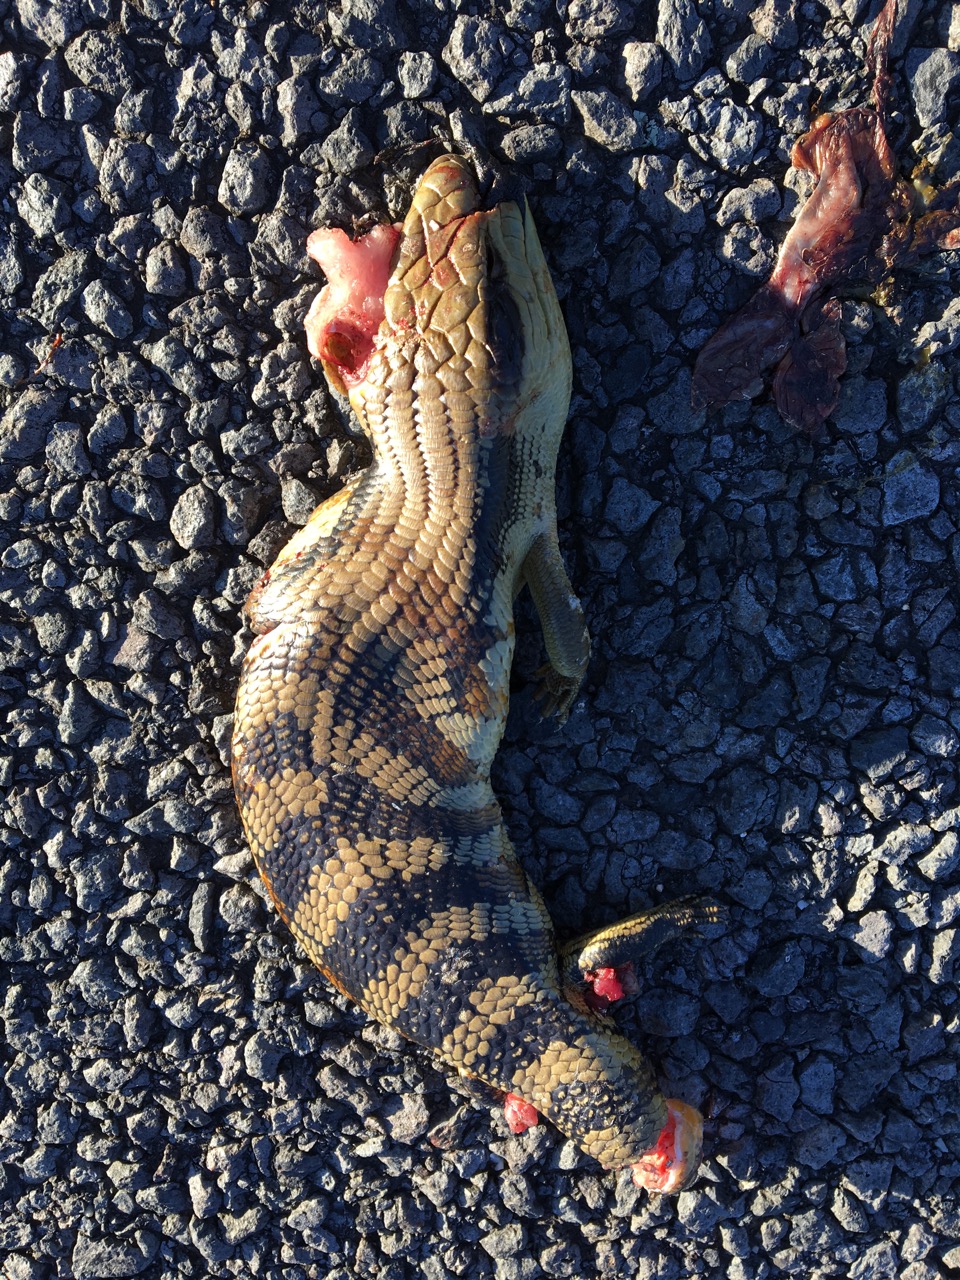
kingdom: Animalia
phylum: Chordata
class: Squamata
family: Scincidae
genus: Tiliqua
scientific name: Tiliqua
